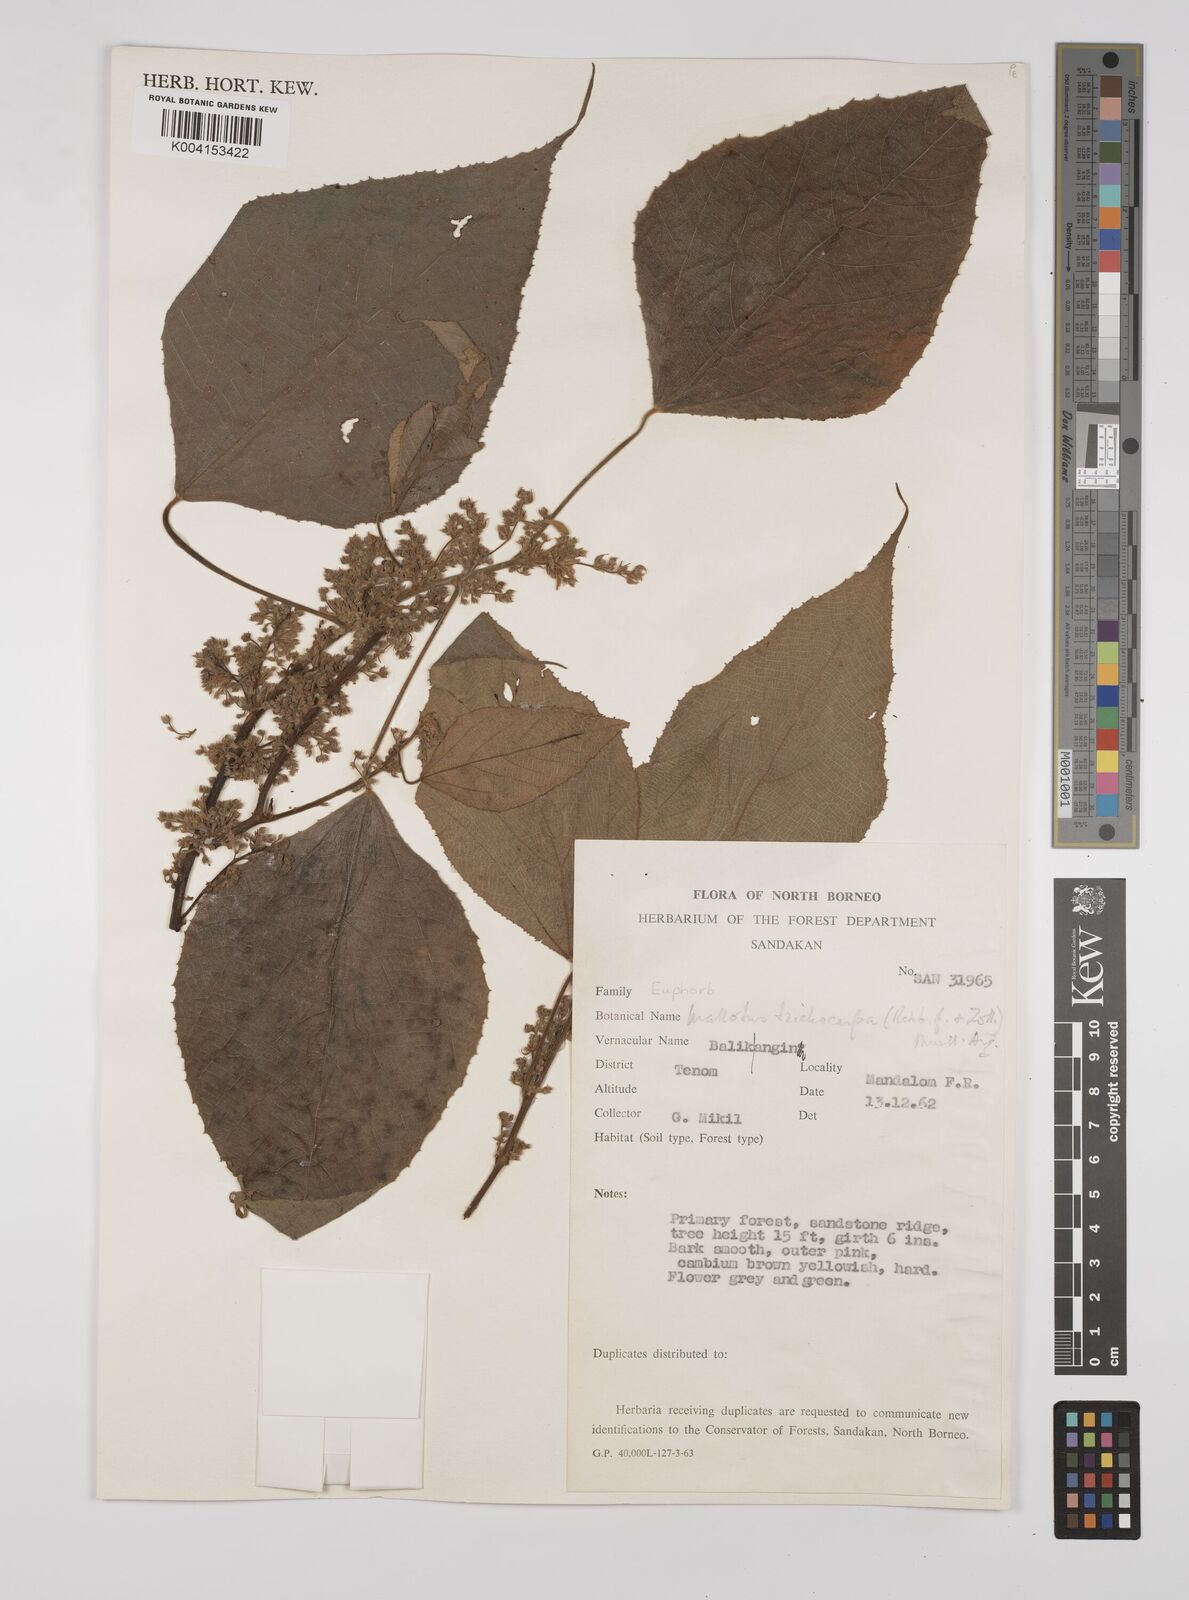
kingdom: Plantae
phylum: Tracheophyta
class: Magnoliopsida
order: Malpighiales
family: Euphorbiaceae
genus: Macaranga
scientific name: Macaranga trichocarpa
